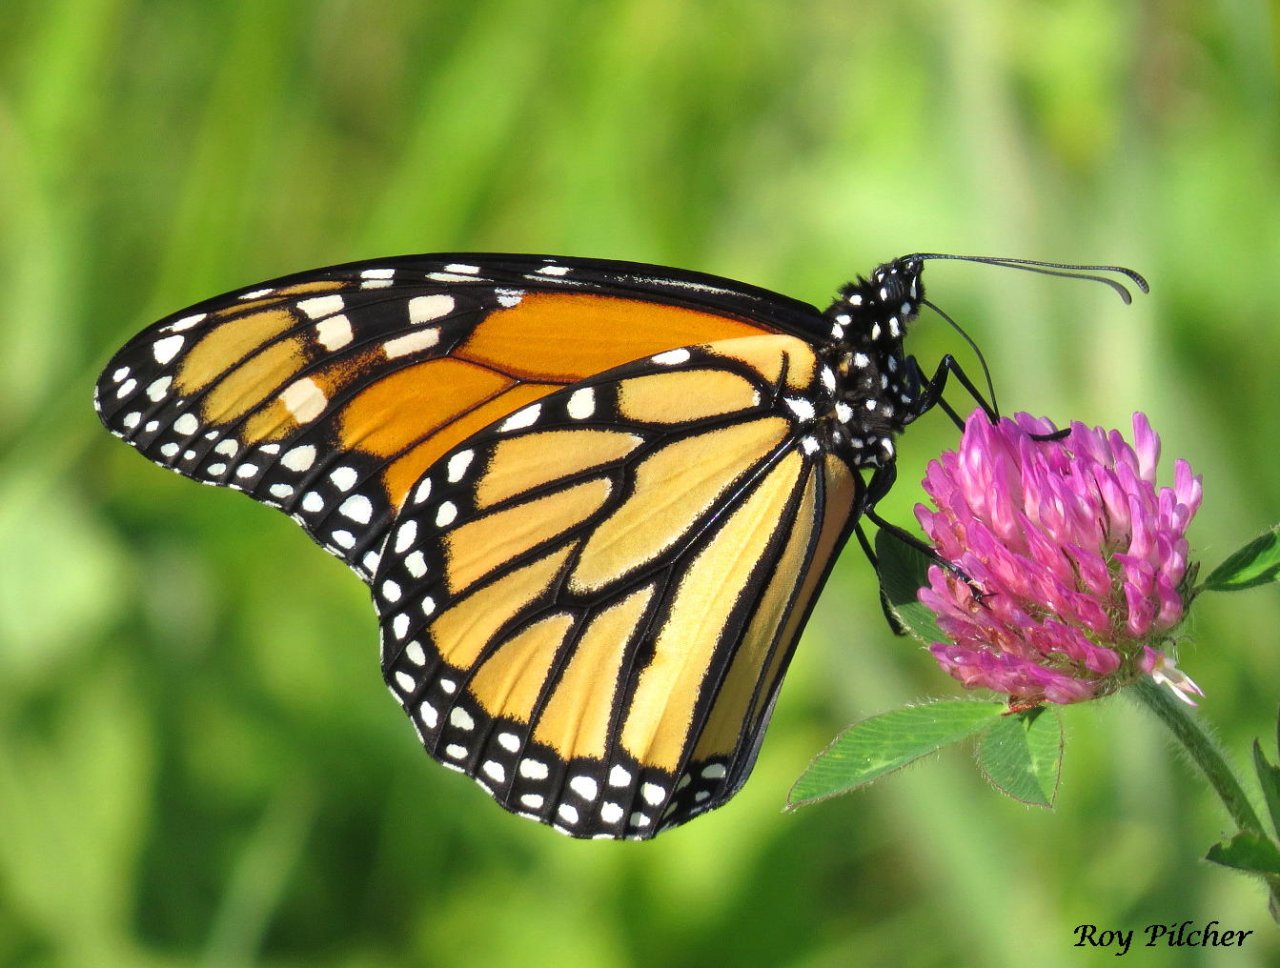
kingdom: Animalia
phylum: Arthropoda
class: Insecta
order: Lepidoptera
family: Nymphalidae
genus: Danaus
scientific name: Danaus plexippus
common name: Monarch
